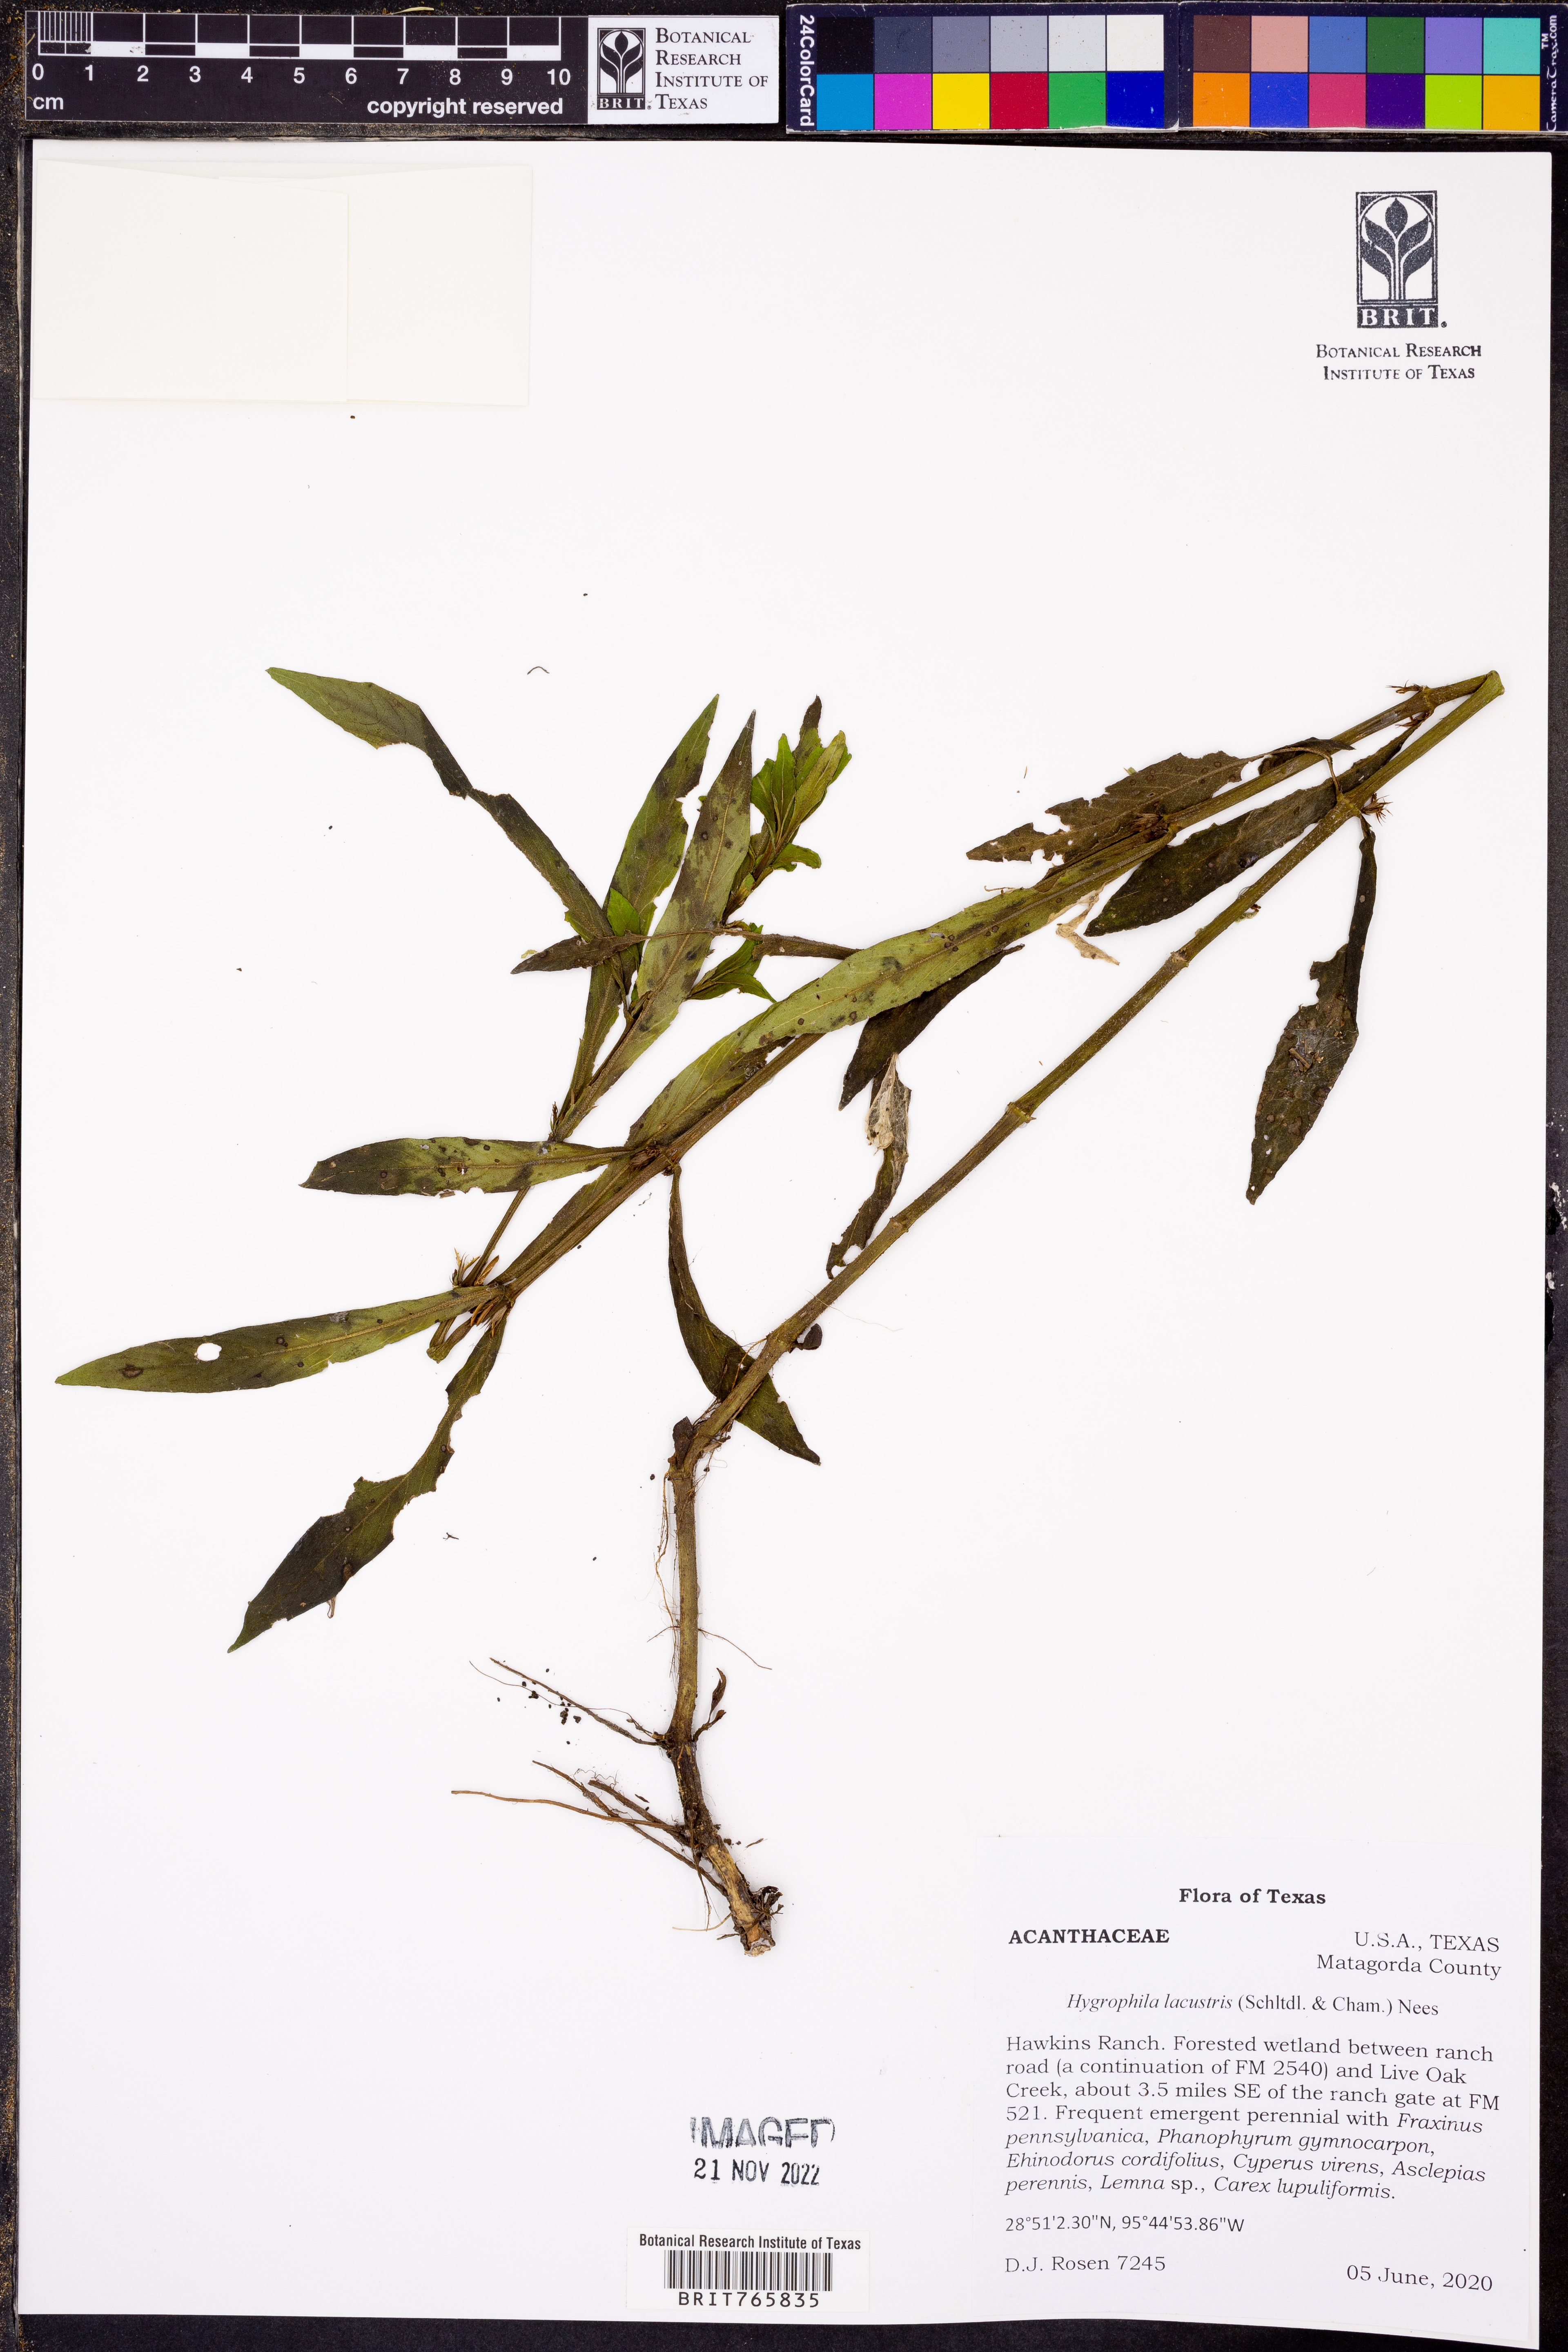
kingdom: Plantae
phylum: Tracheophyta
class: Magnoliopsida
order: Lamiales
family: Acanthaceae
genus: Hygrophila
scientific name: Hygrophila costata
